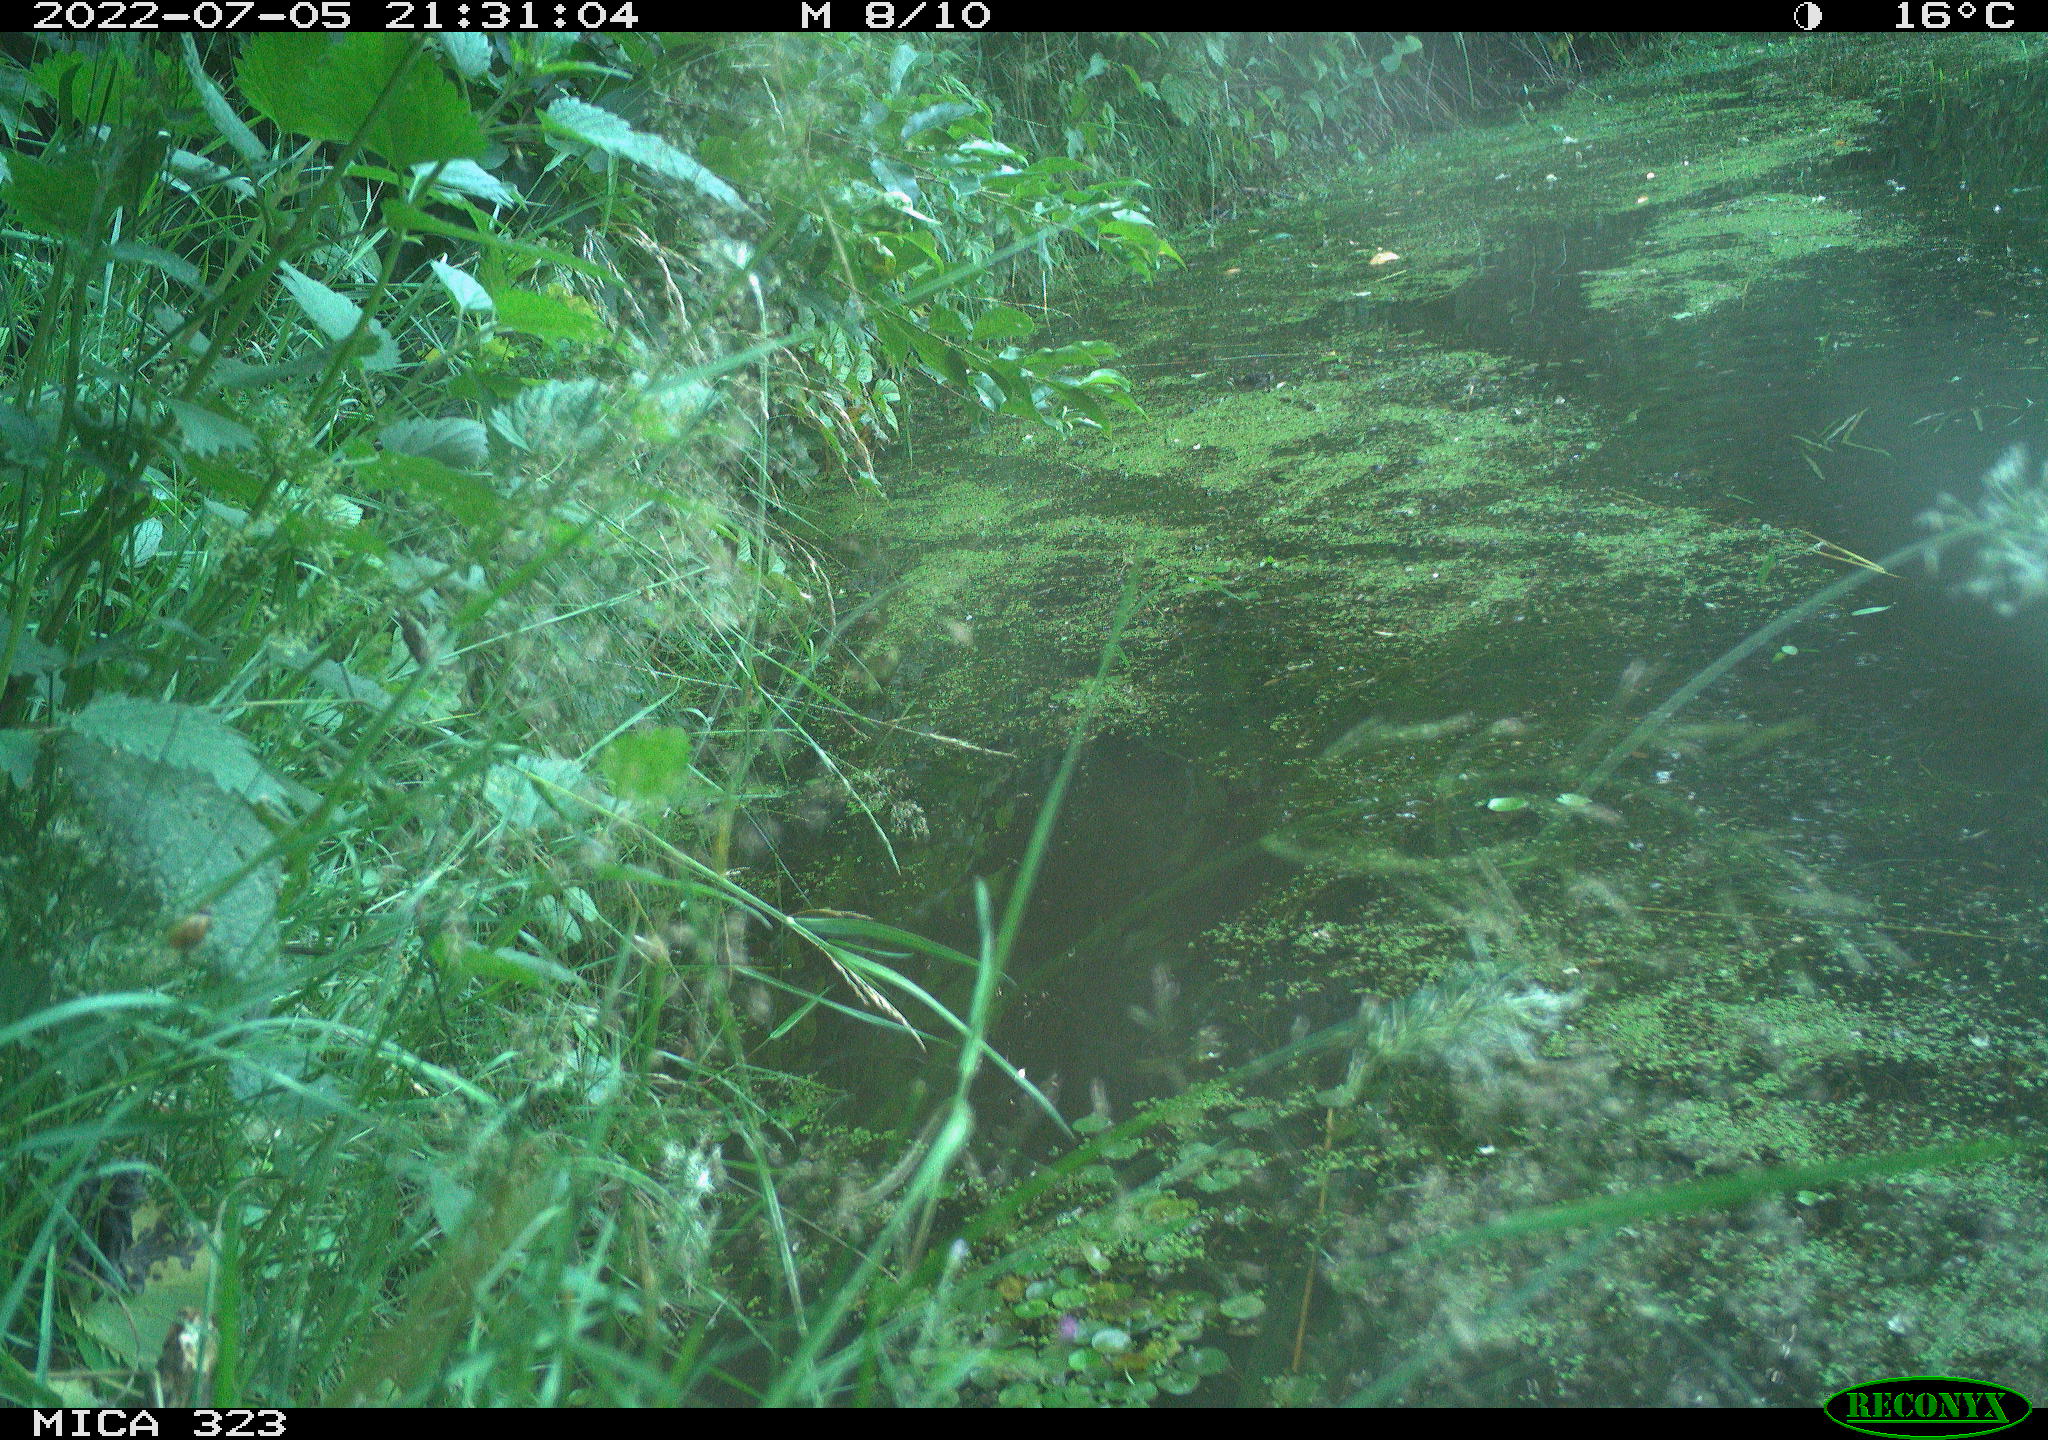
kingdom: Animalia
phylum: Chordata
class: Aves
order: Anseriformes
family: Anatidae
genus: Anas
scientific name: Anas platyrhynchos
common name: Mallard
